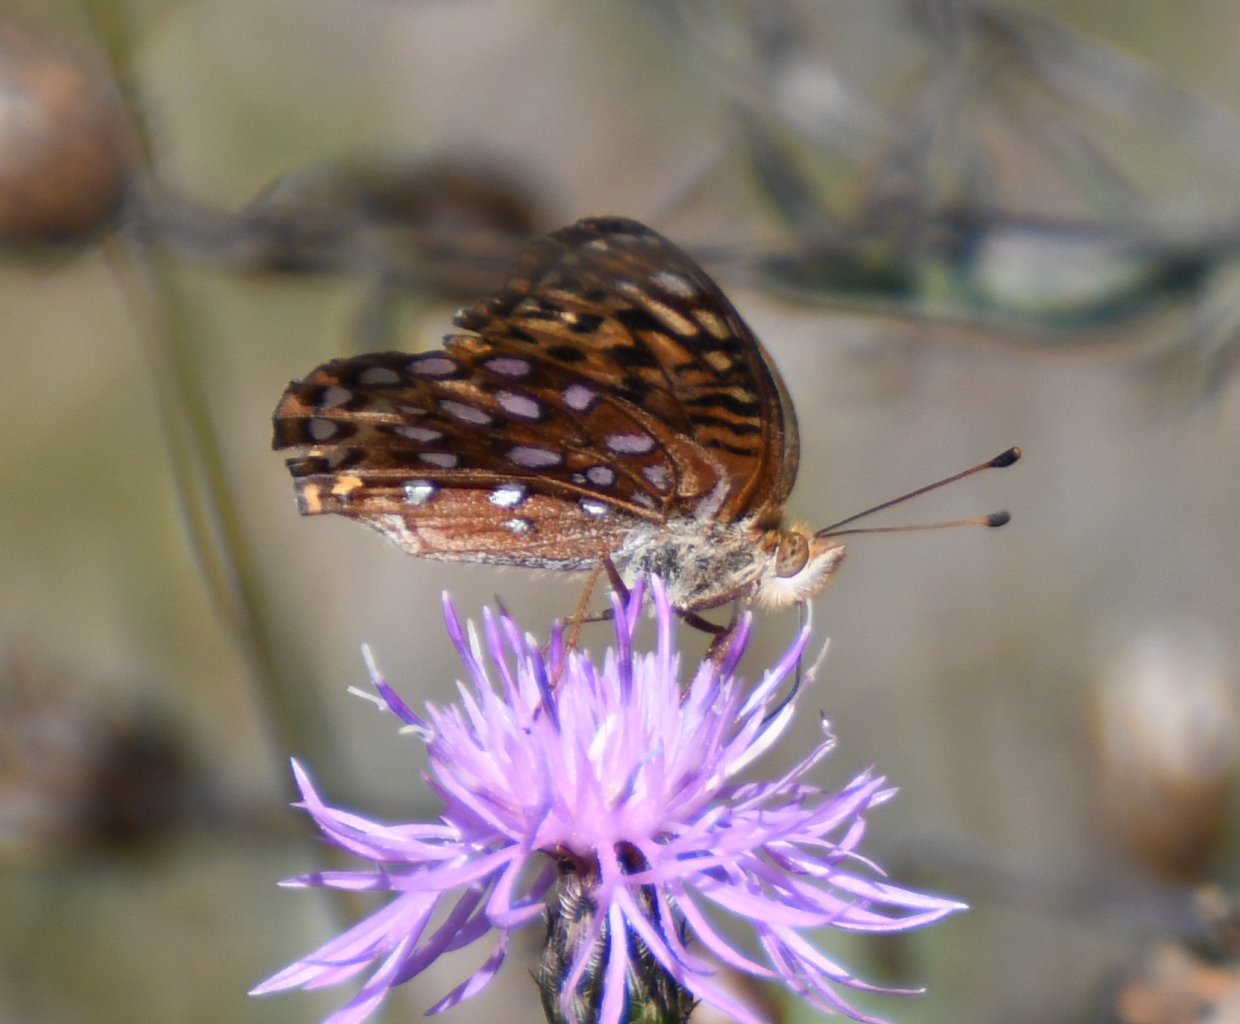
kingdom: Animalia
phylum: Arthropoda
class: Insecta
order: Lepidoptera
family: Nymphalidae
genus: Speyeria
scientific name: Speyeria aphrodite
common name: Aphrodite Fritillary
